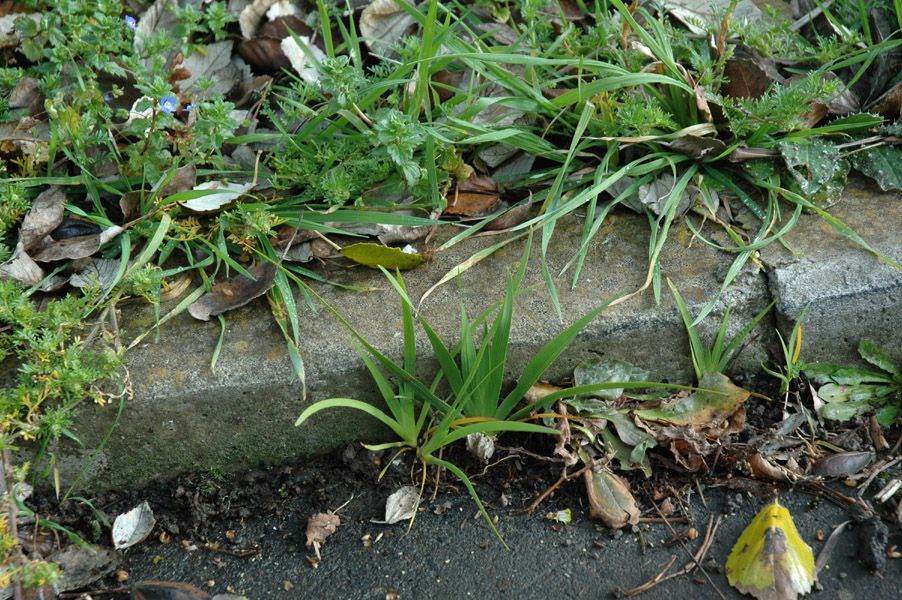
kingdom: Plantae
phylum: Tracheophyta
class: Liliopsida
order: Asparagales
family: Iridaceae
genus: Libertia
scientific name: Libertia chilensis
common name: Satin flower
